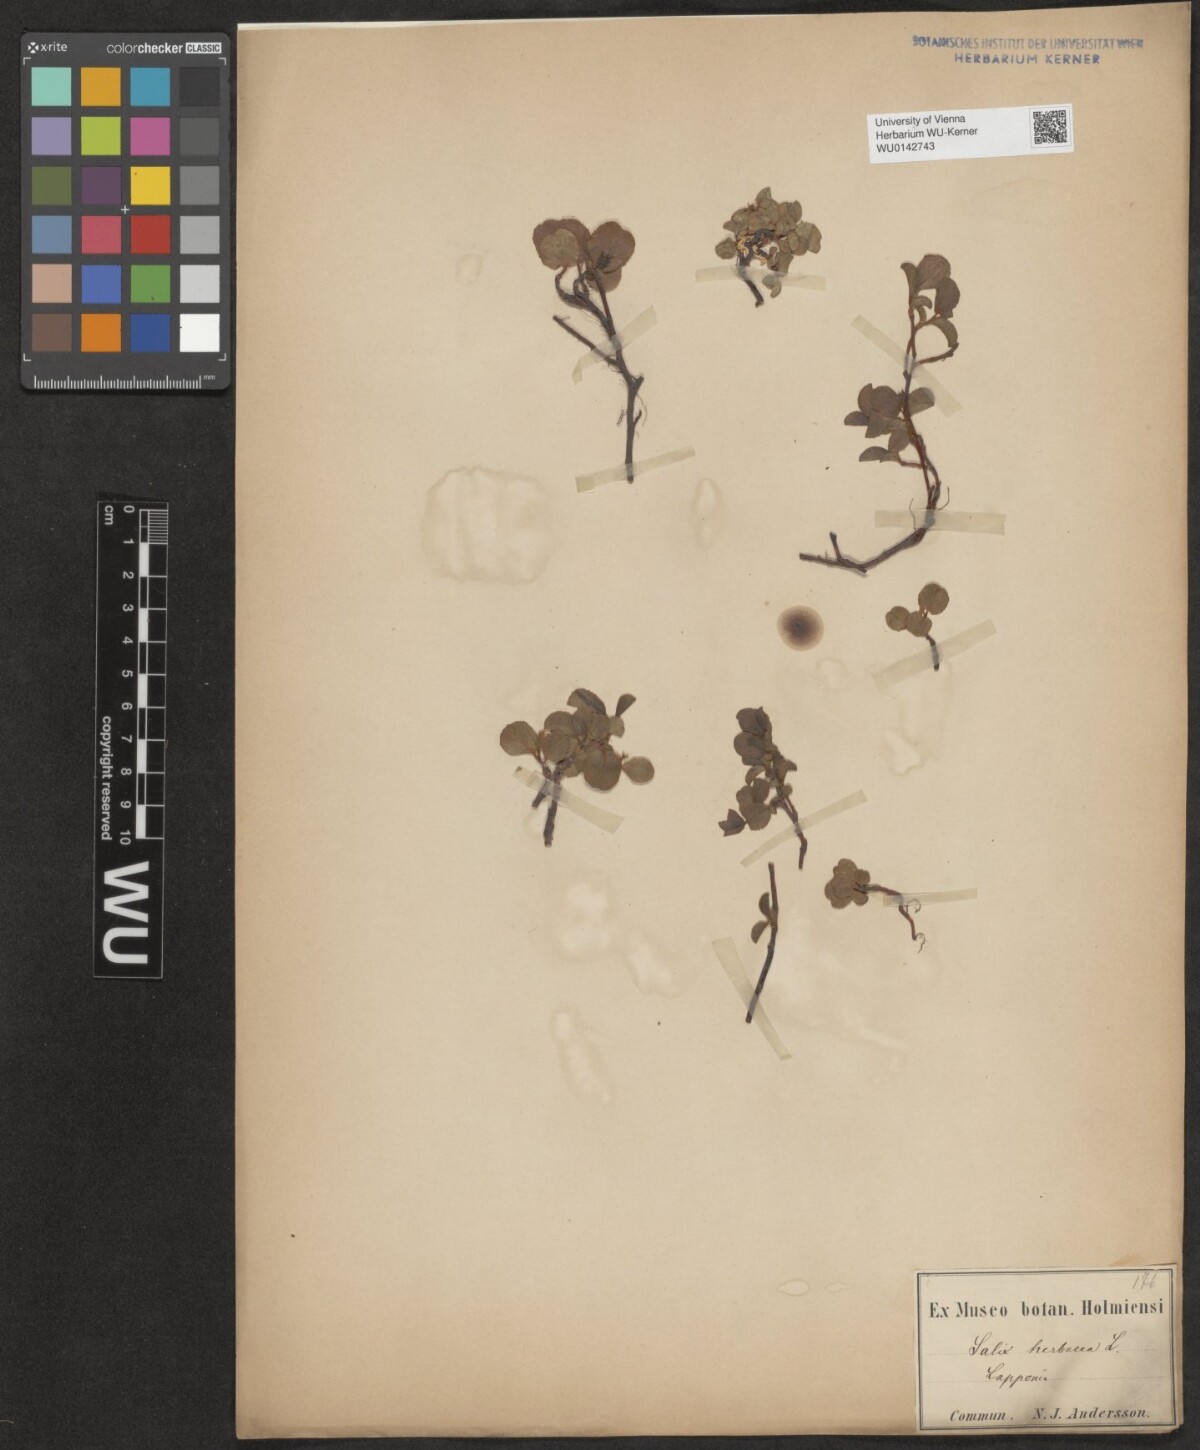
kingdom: Plantae
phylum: Tracheophyta
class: Magnoliopsida
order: Malpighiales
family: Salicaceae
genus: Salix
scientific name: Salix herbacea
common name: Dwarf willow
